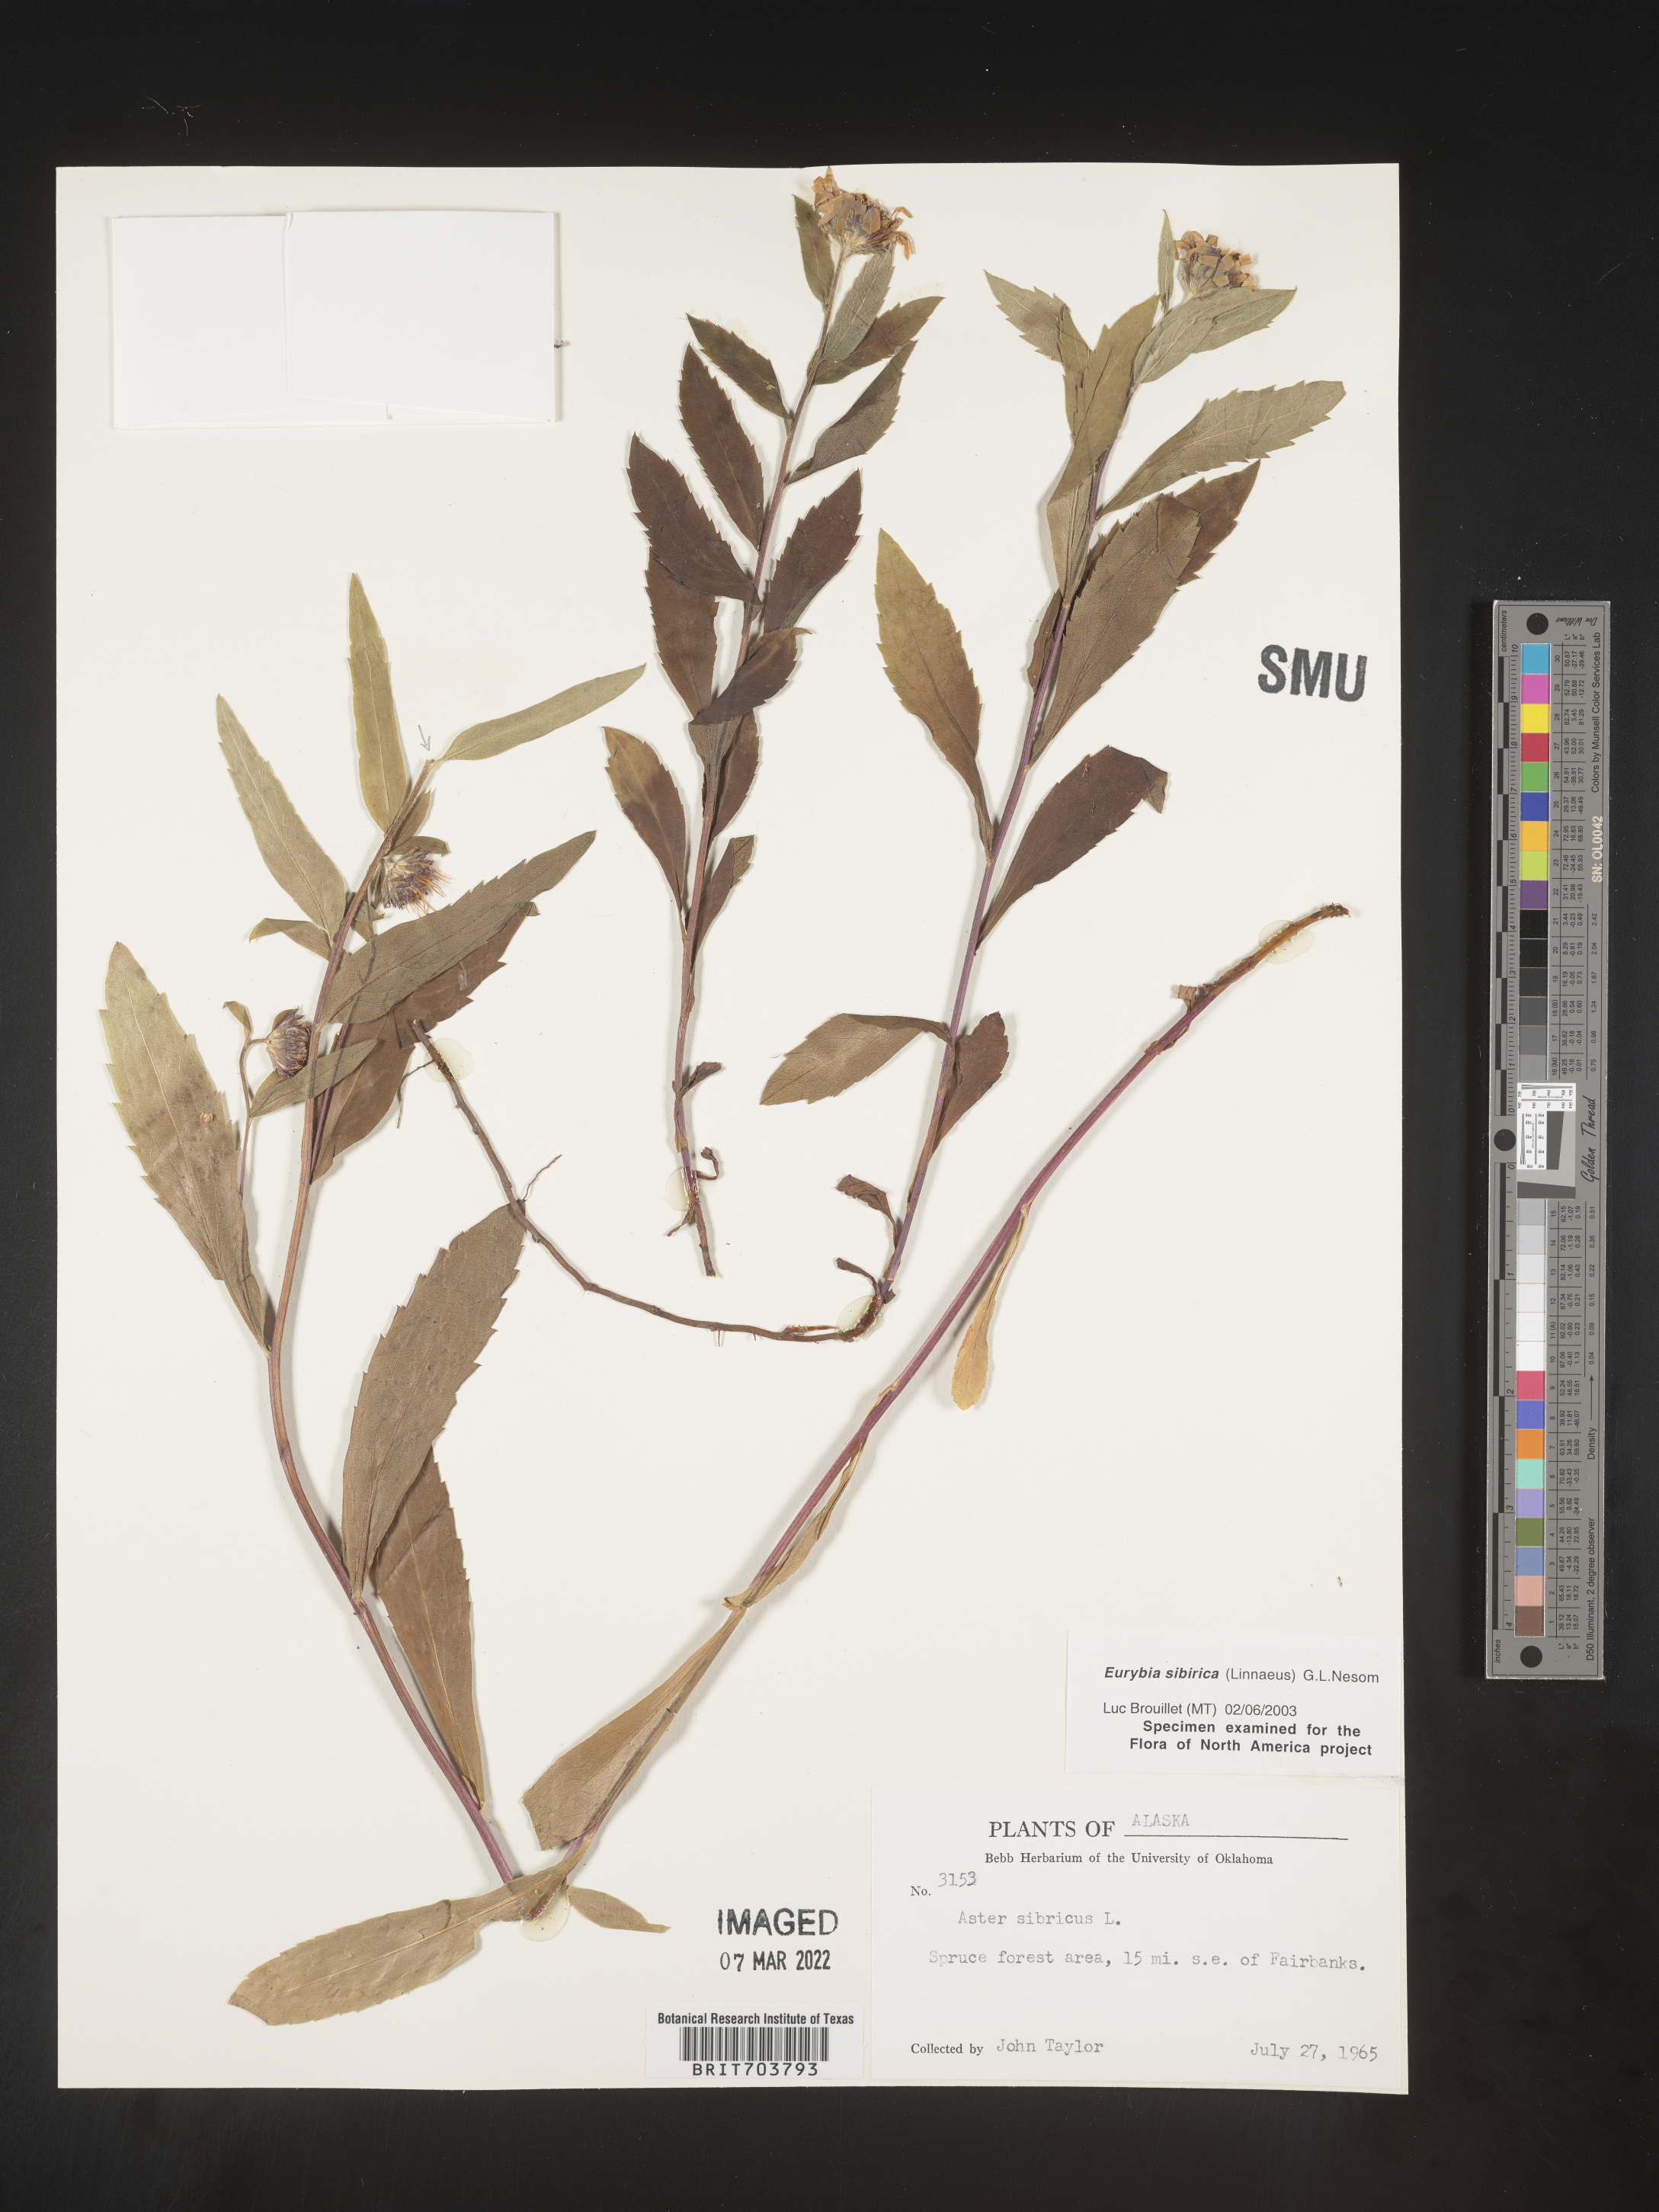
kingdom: Plantae
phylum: Tracheophyta
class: Magnoliopsida
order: Asterales
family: Asteraceae
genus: Eurybia
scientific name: Eurybia sibirica
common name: Arctic aster
